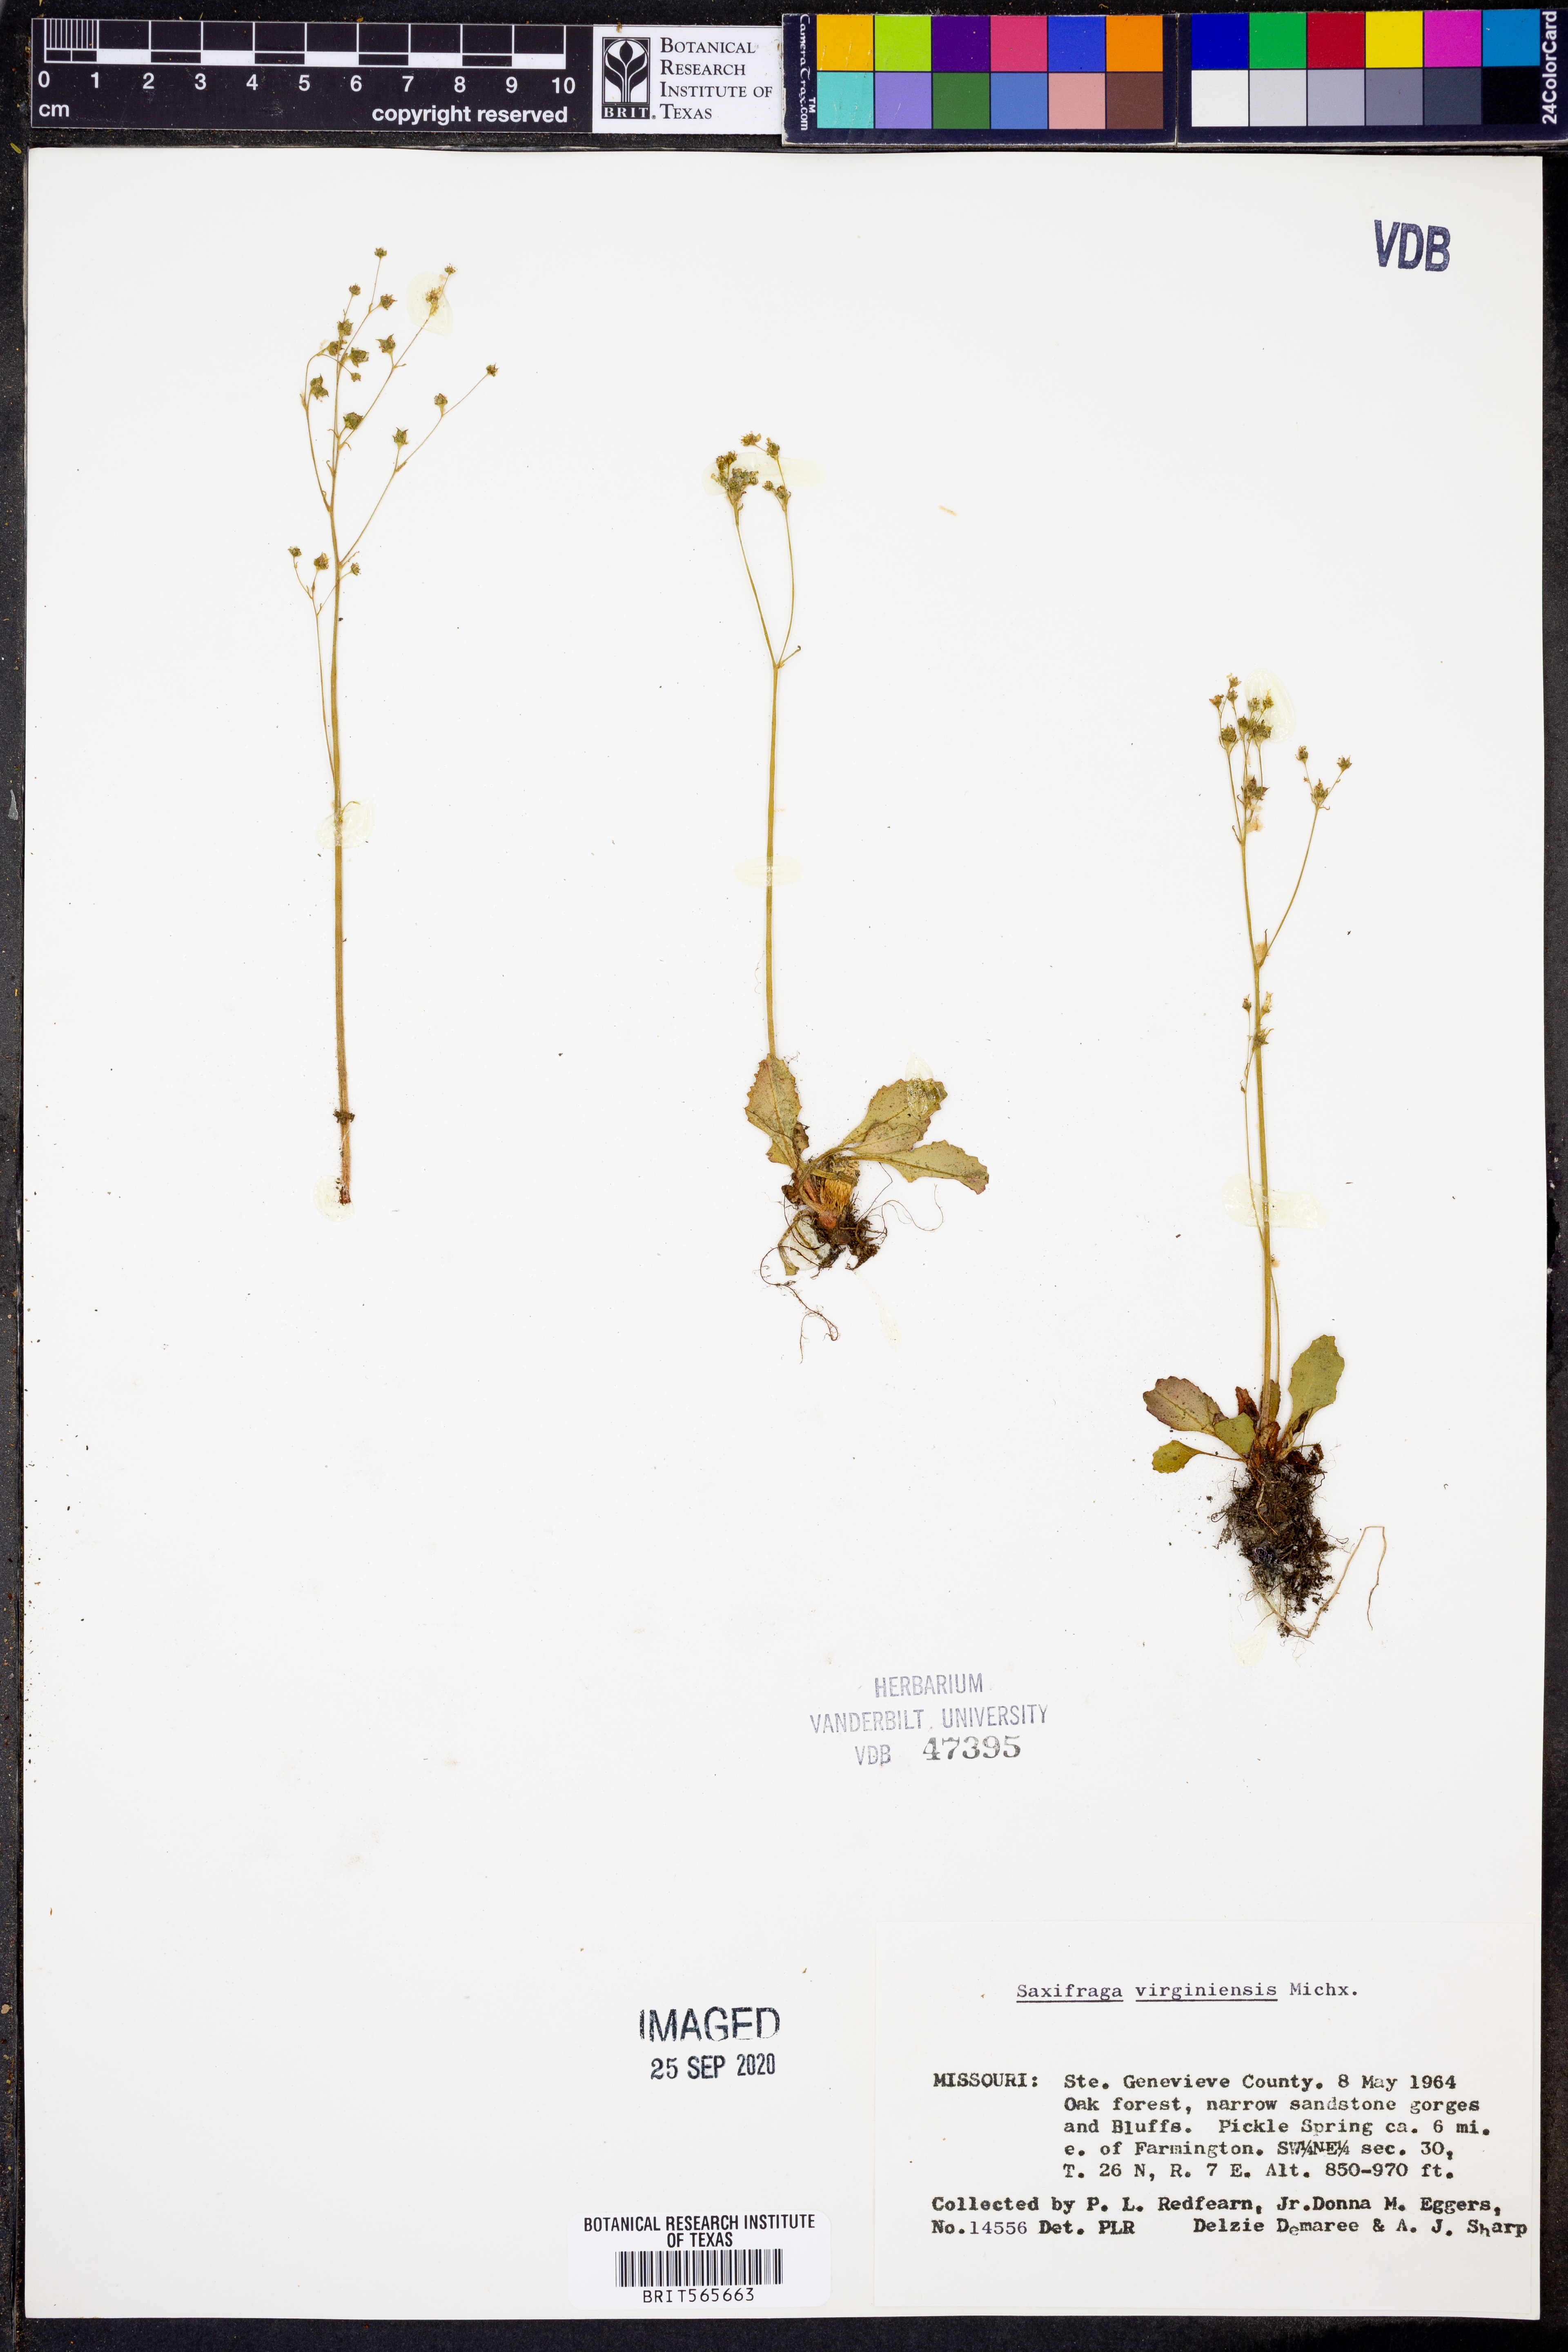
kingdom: Plantae
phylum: Tracheophyta
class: Magnoliopsida
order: Saxifragales
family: Saxifragaceae
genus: Micranthes
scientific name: Micranthes virginiensis
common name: Early saxifrage
